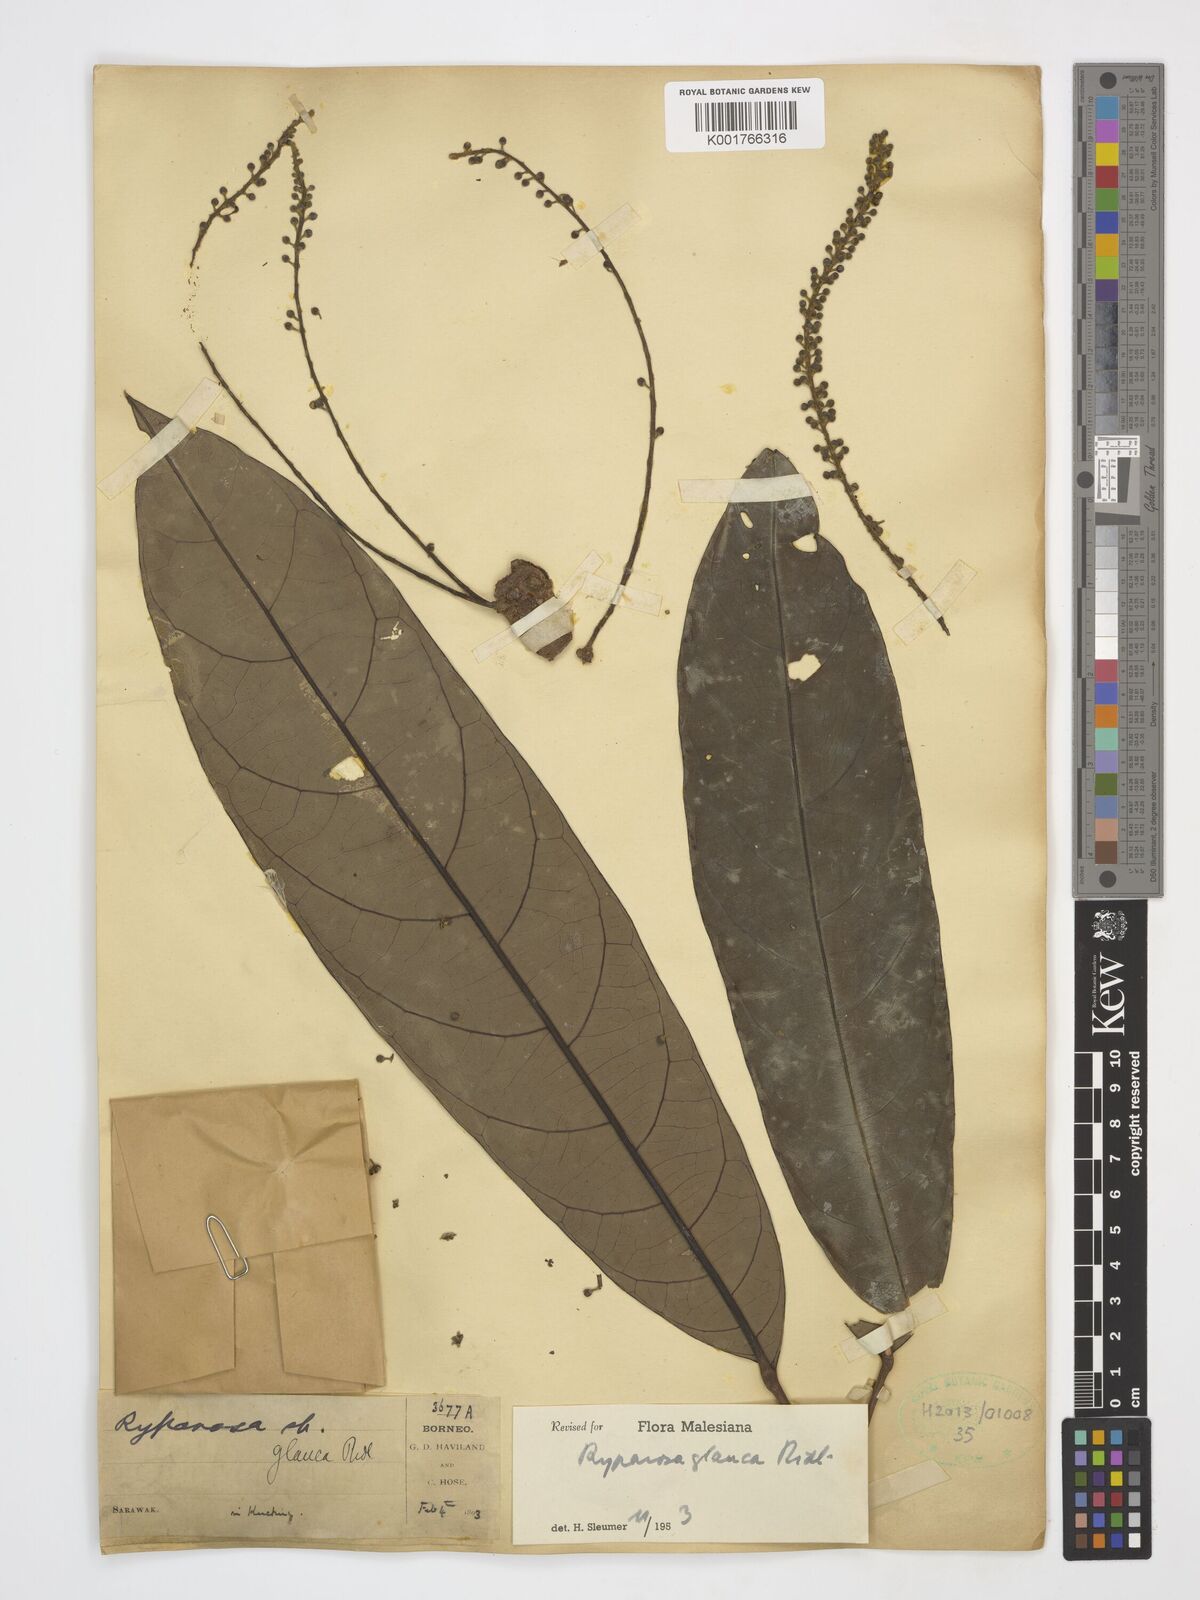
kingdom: Plantae
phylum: Tracheophyta
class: Magnoliopsida
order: Malpighiales
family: Achariaceae
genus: Ryparosa
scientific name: Ryparosa glauca
